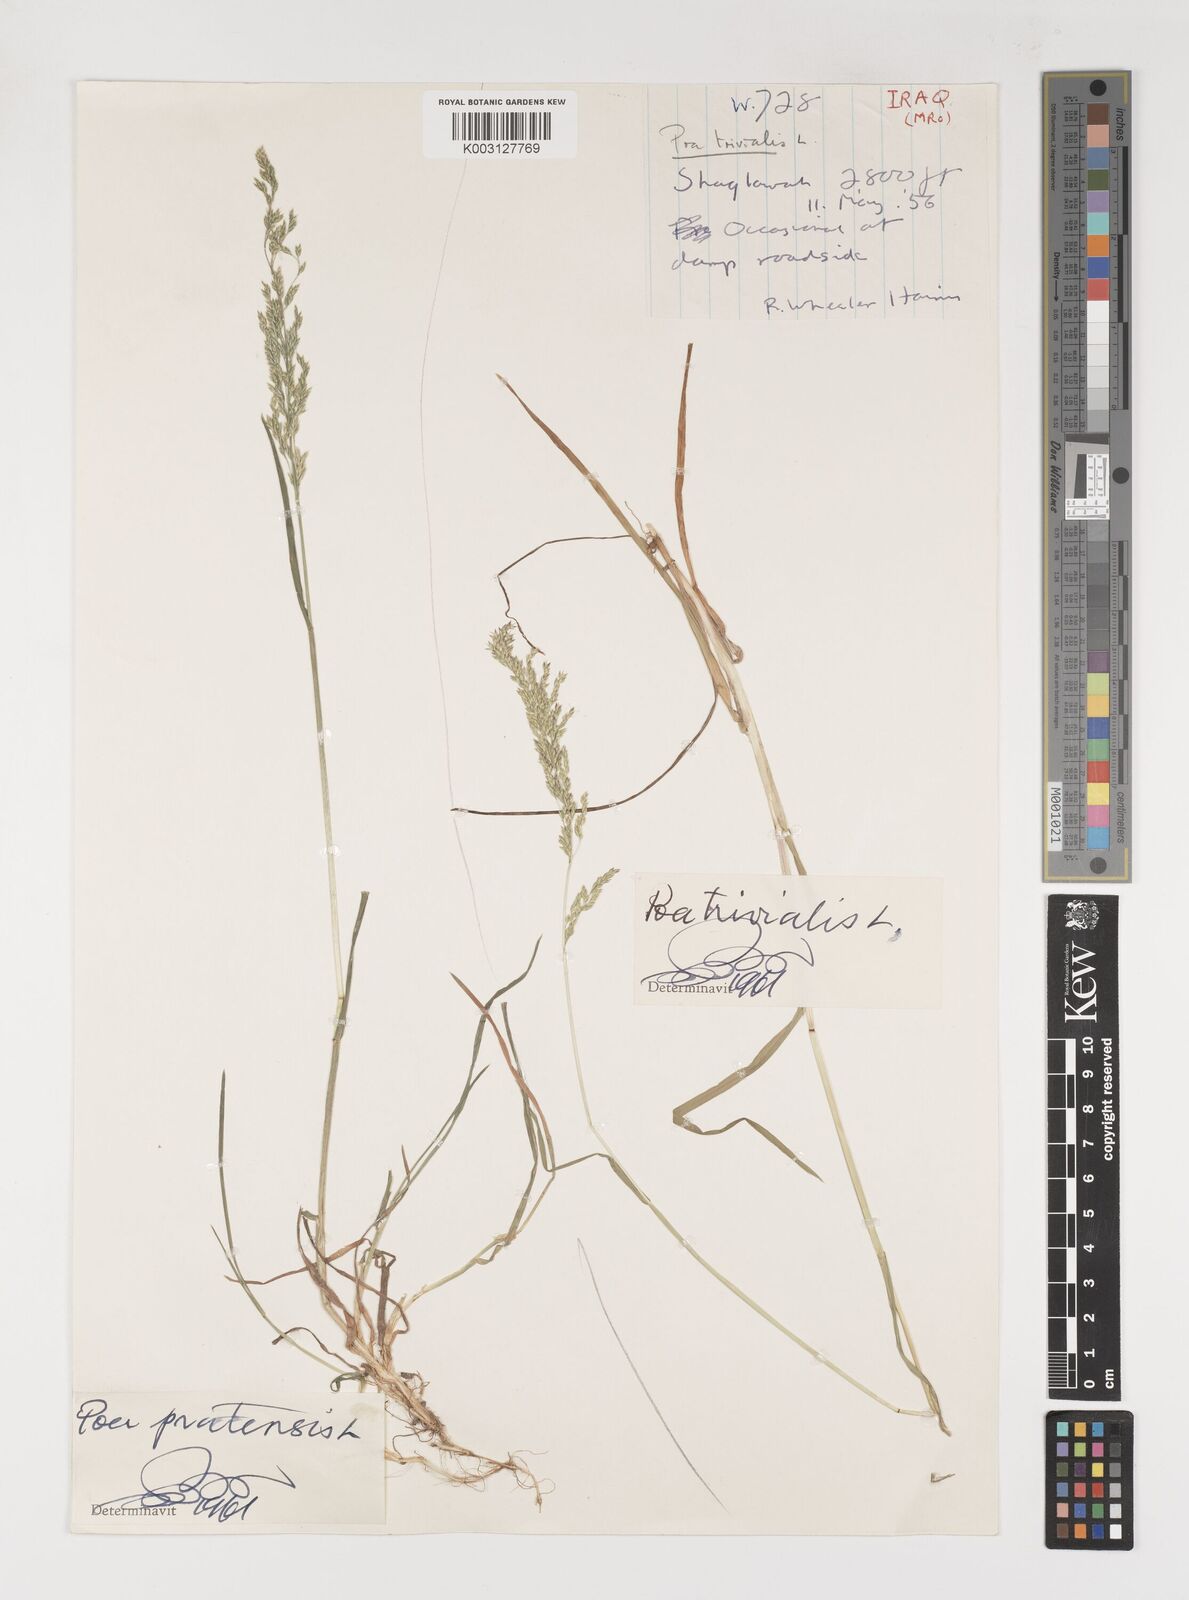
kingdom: Plantae
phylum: Tracheophyta
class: Liliopsida
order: Poales
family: Poaceae
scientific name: Poaceae
